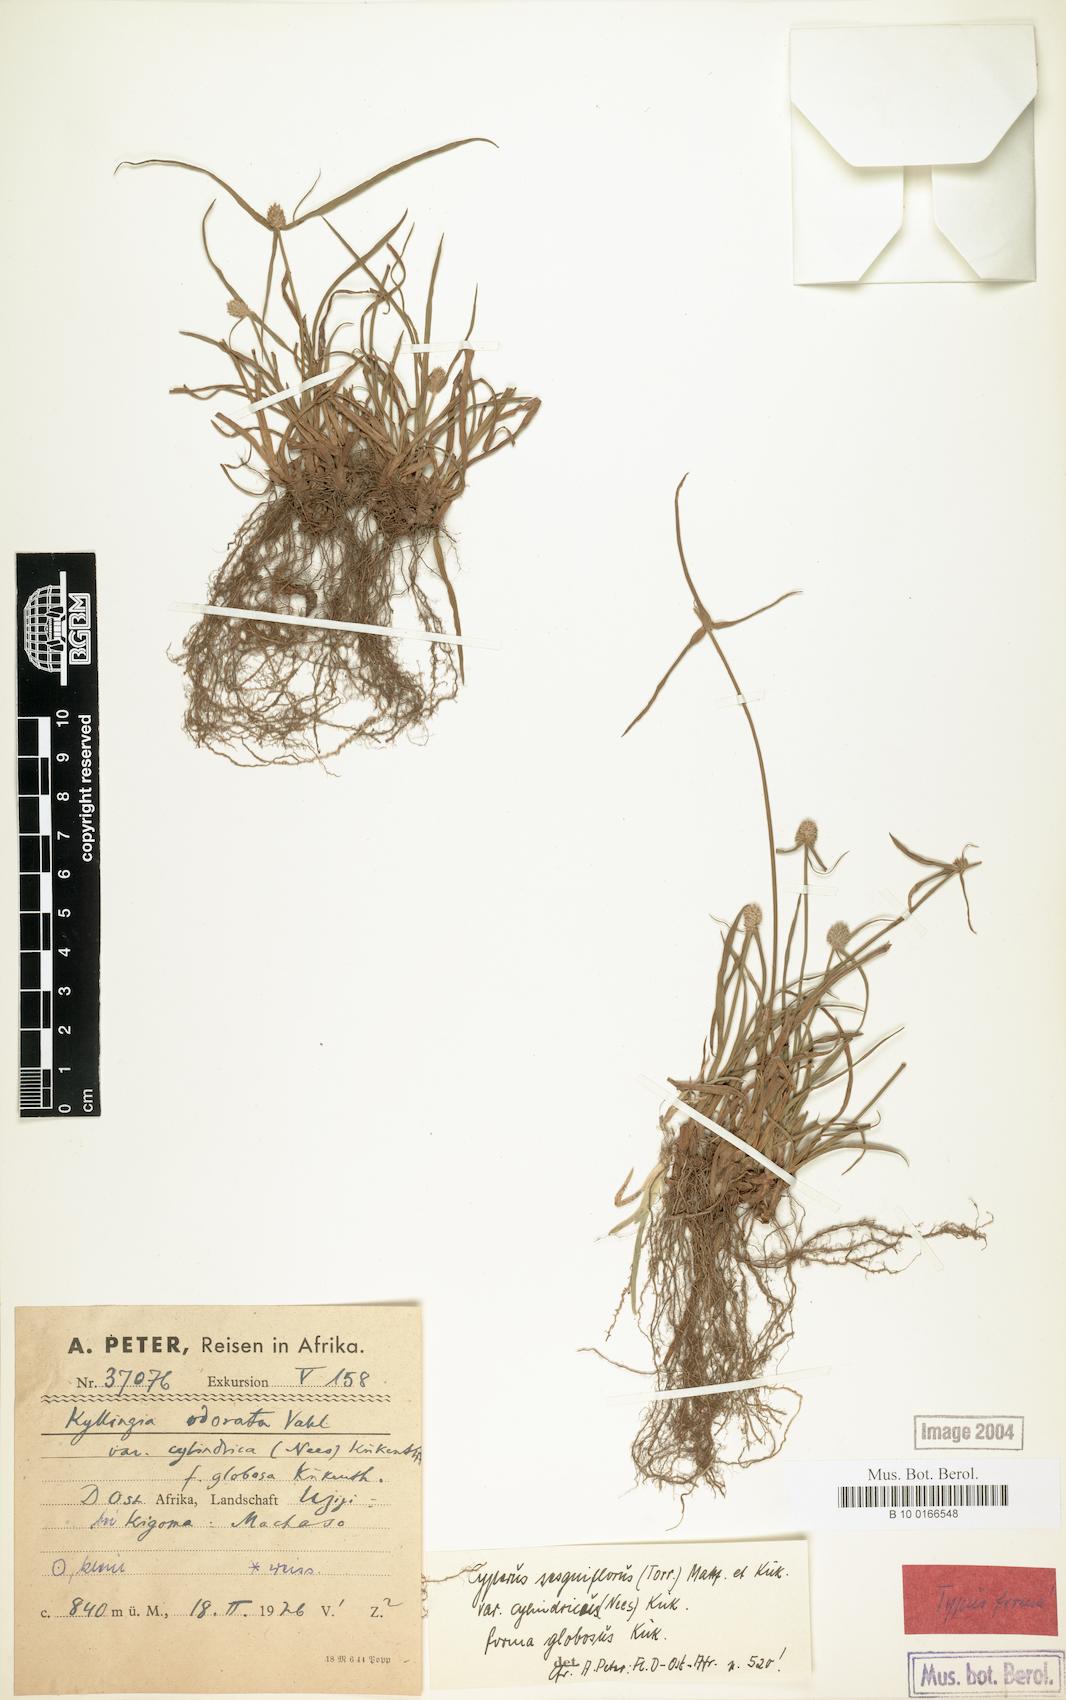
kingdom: Plantae
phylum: Tracheophyta
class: Liliopsida
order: Poales
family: Cyperaceae
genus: Cyperus
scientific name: Cyperus sesquiflorus
